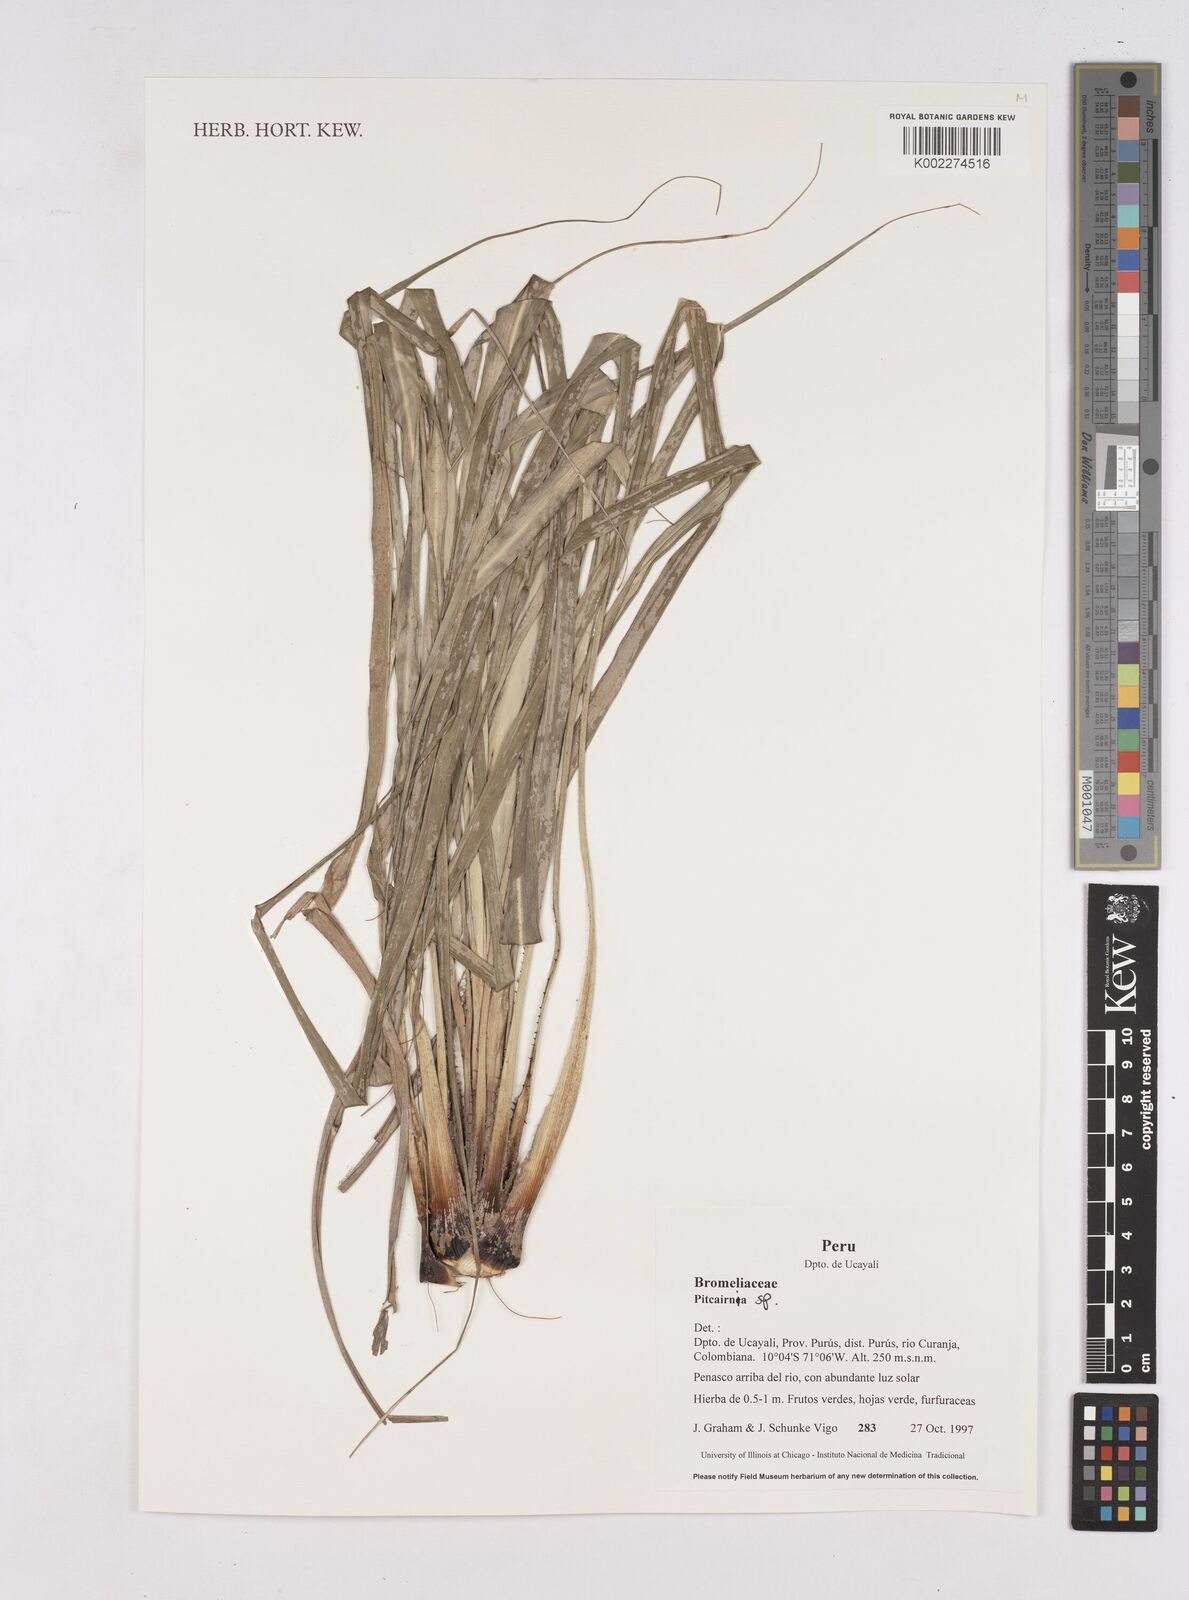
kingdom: Plantae
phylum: Tracheophyta
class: Liliopsida
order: Poales
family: Bromeliaceae
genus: Pitcairnia
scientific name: Pitcairnia
